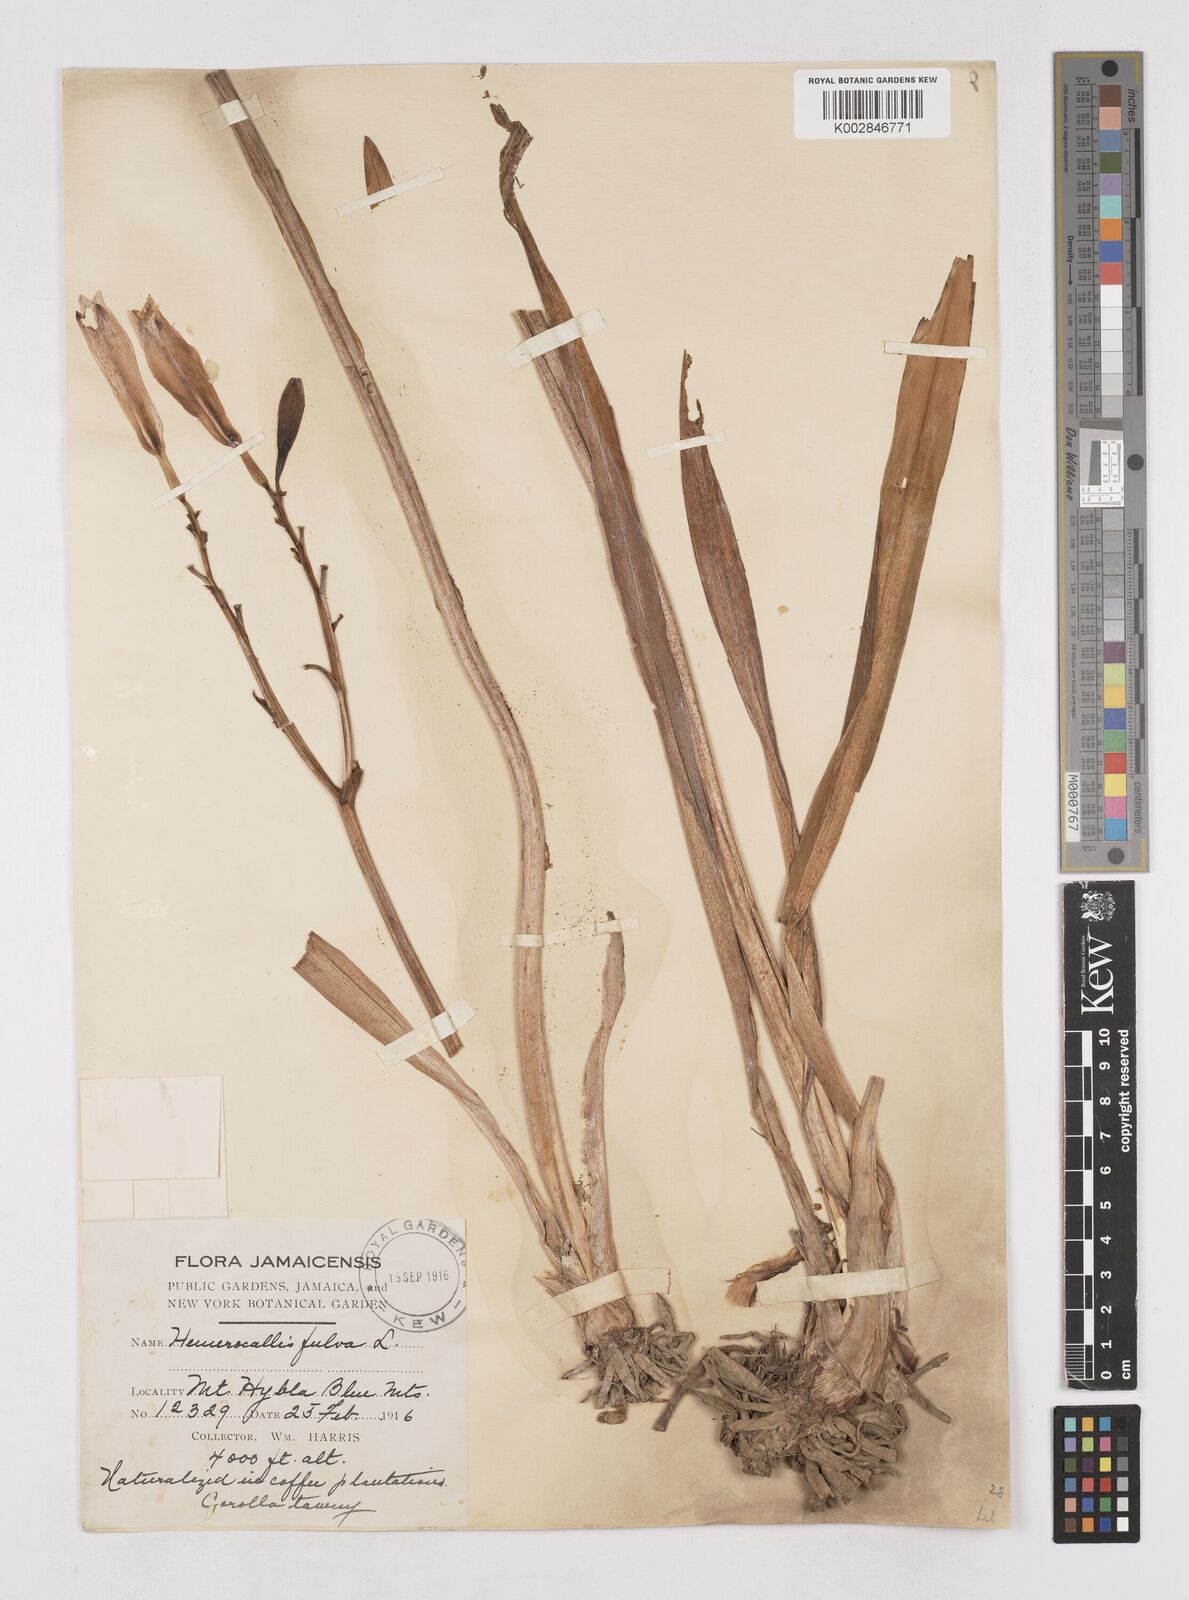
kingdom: Plantae
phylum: Tracheophyta
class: Liliopsida
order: Asparagales
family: Asphodelaceae
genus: Hemerocallis
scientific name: Hemerocallis fulva
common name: Orange day-lily
